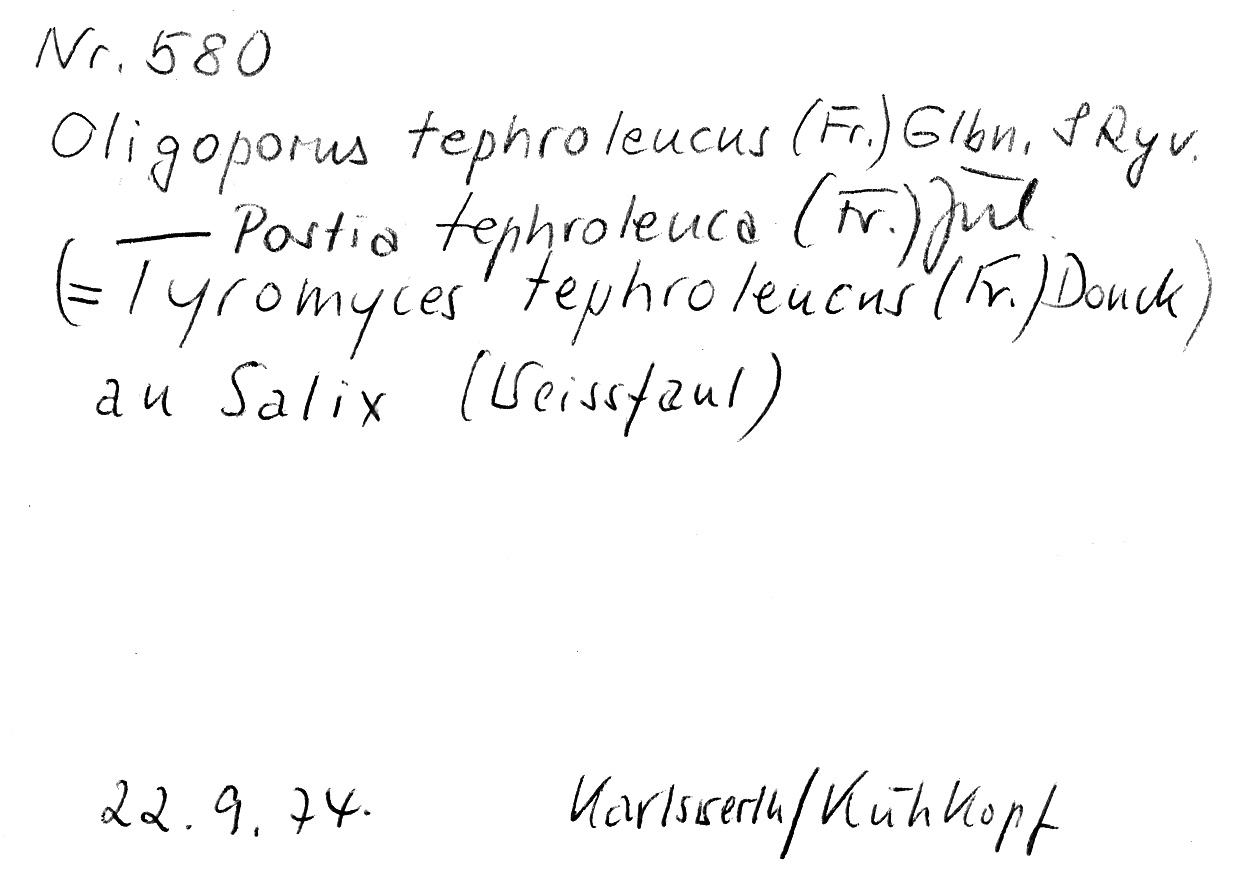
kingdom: Fungi
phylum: Basidiomycota
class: Agaricomycetes
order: Polyporales
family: Dacryobolaceae
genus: Postia
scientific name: Postia tephroleuca
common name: Greyling bracket
